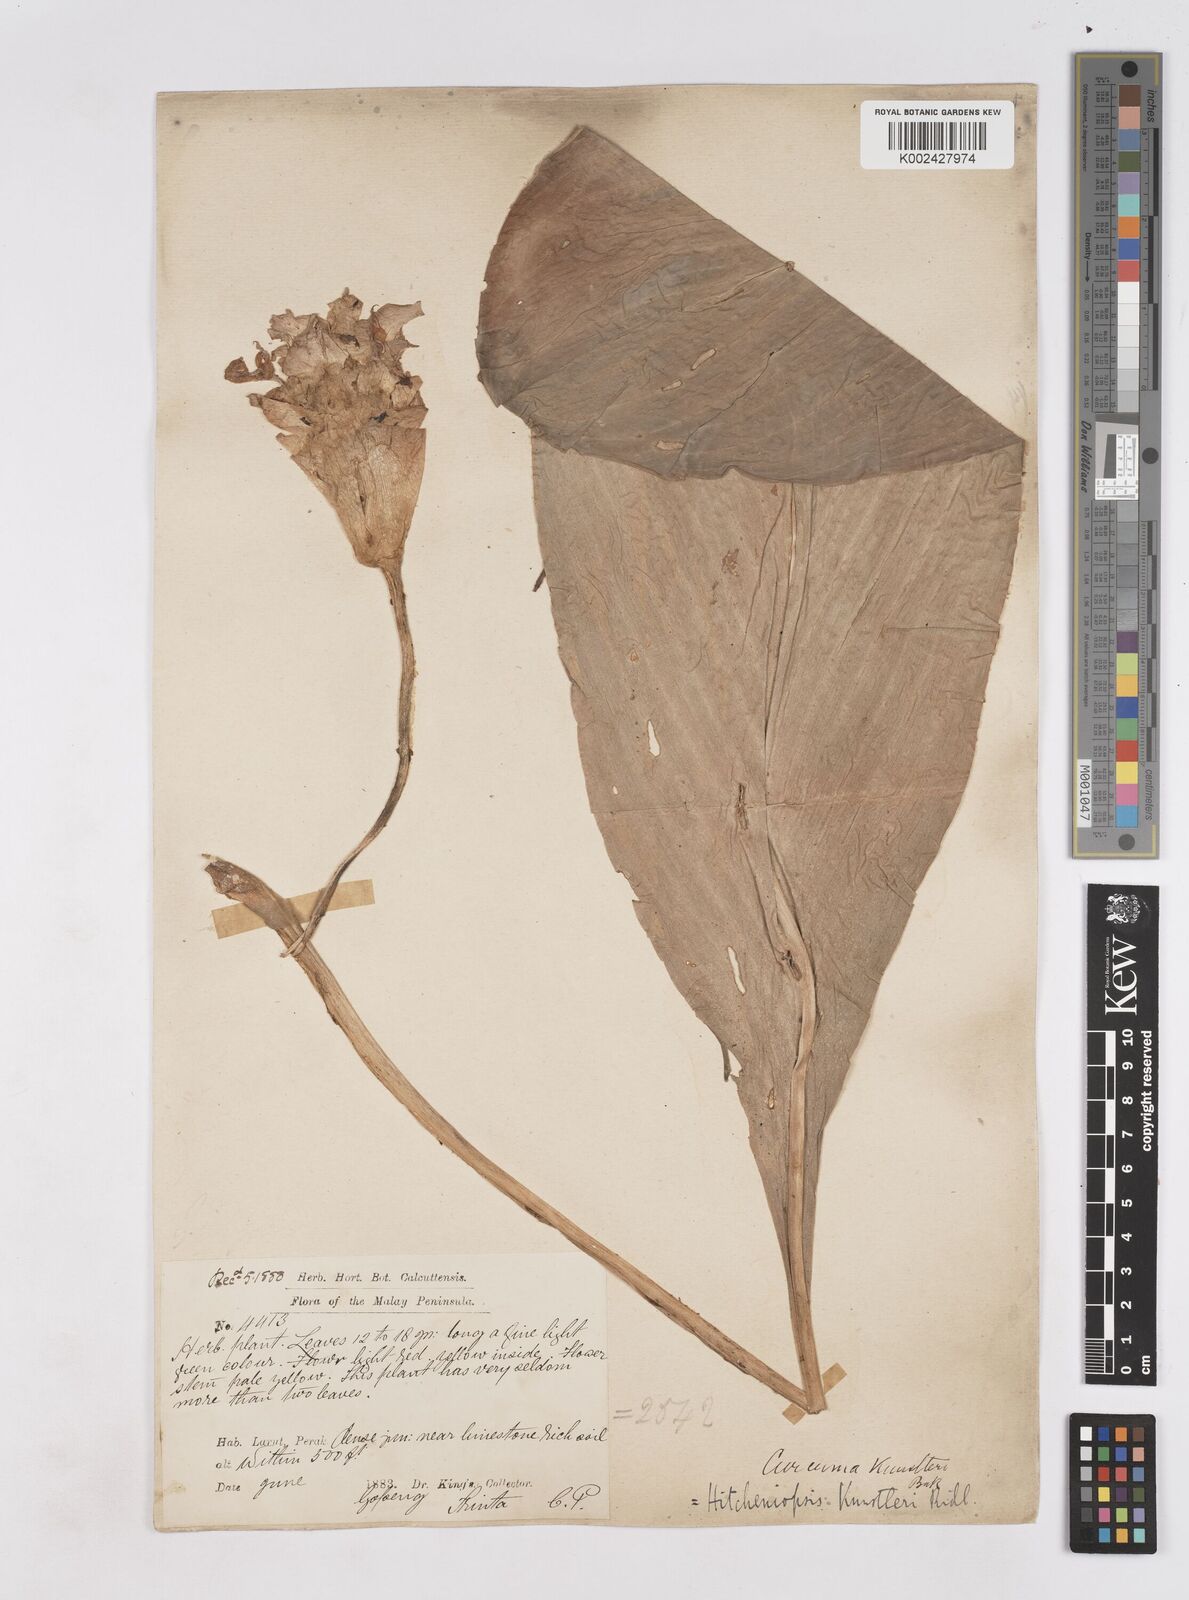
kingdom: Plantae
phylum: Tracheophyta
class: Liliopsida
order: Zingiberales
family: Zingiberaceae
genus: Scaphochlamys
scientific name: Scaphochlamys
